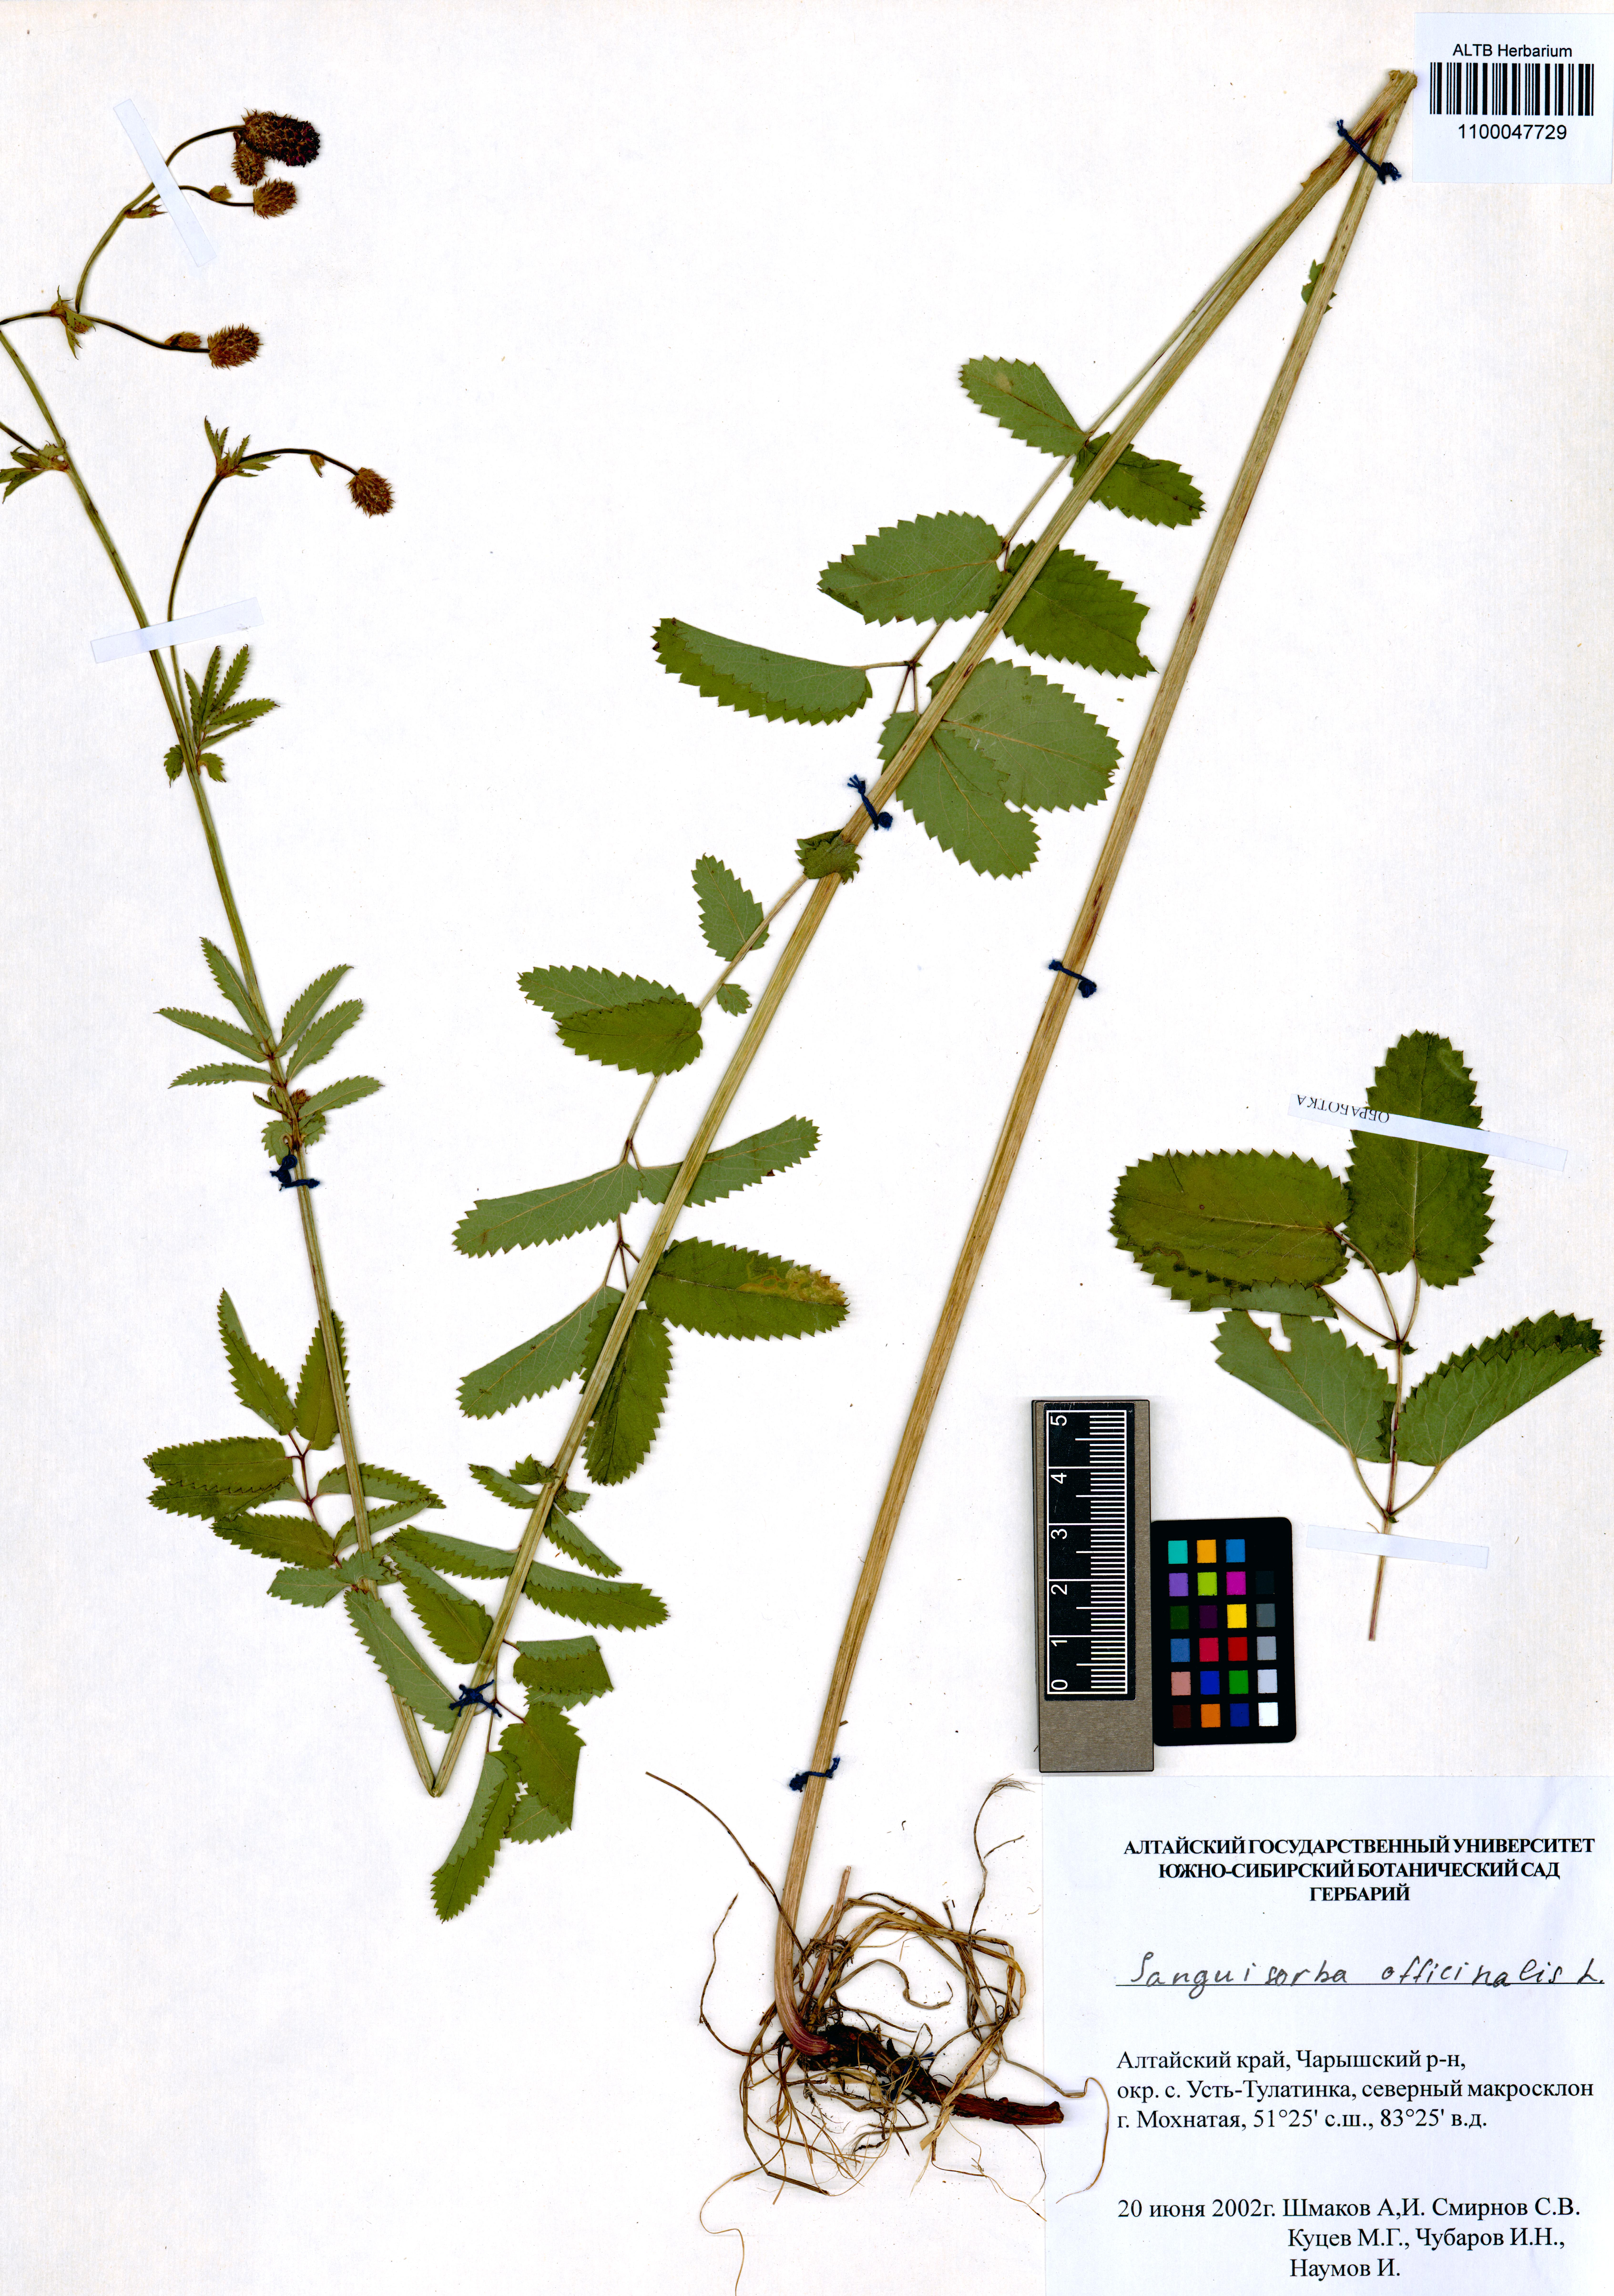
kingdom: Plantae
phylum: Tracheophyta
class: Magnoliopsida
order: Rosales
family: Rosaceae
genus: Sanguisorba
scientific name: Sanguisorba officinalis
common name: Great burnet
